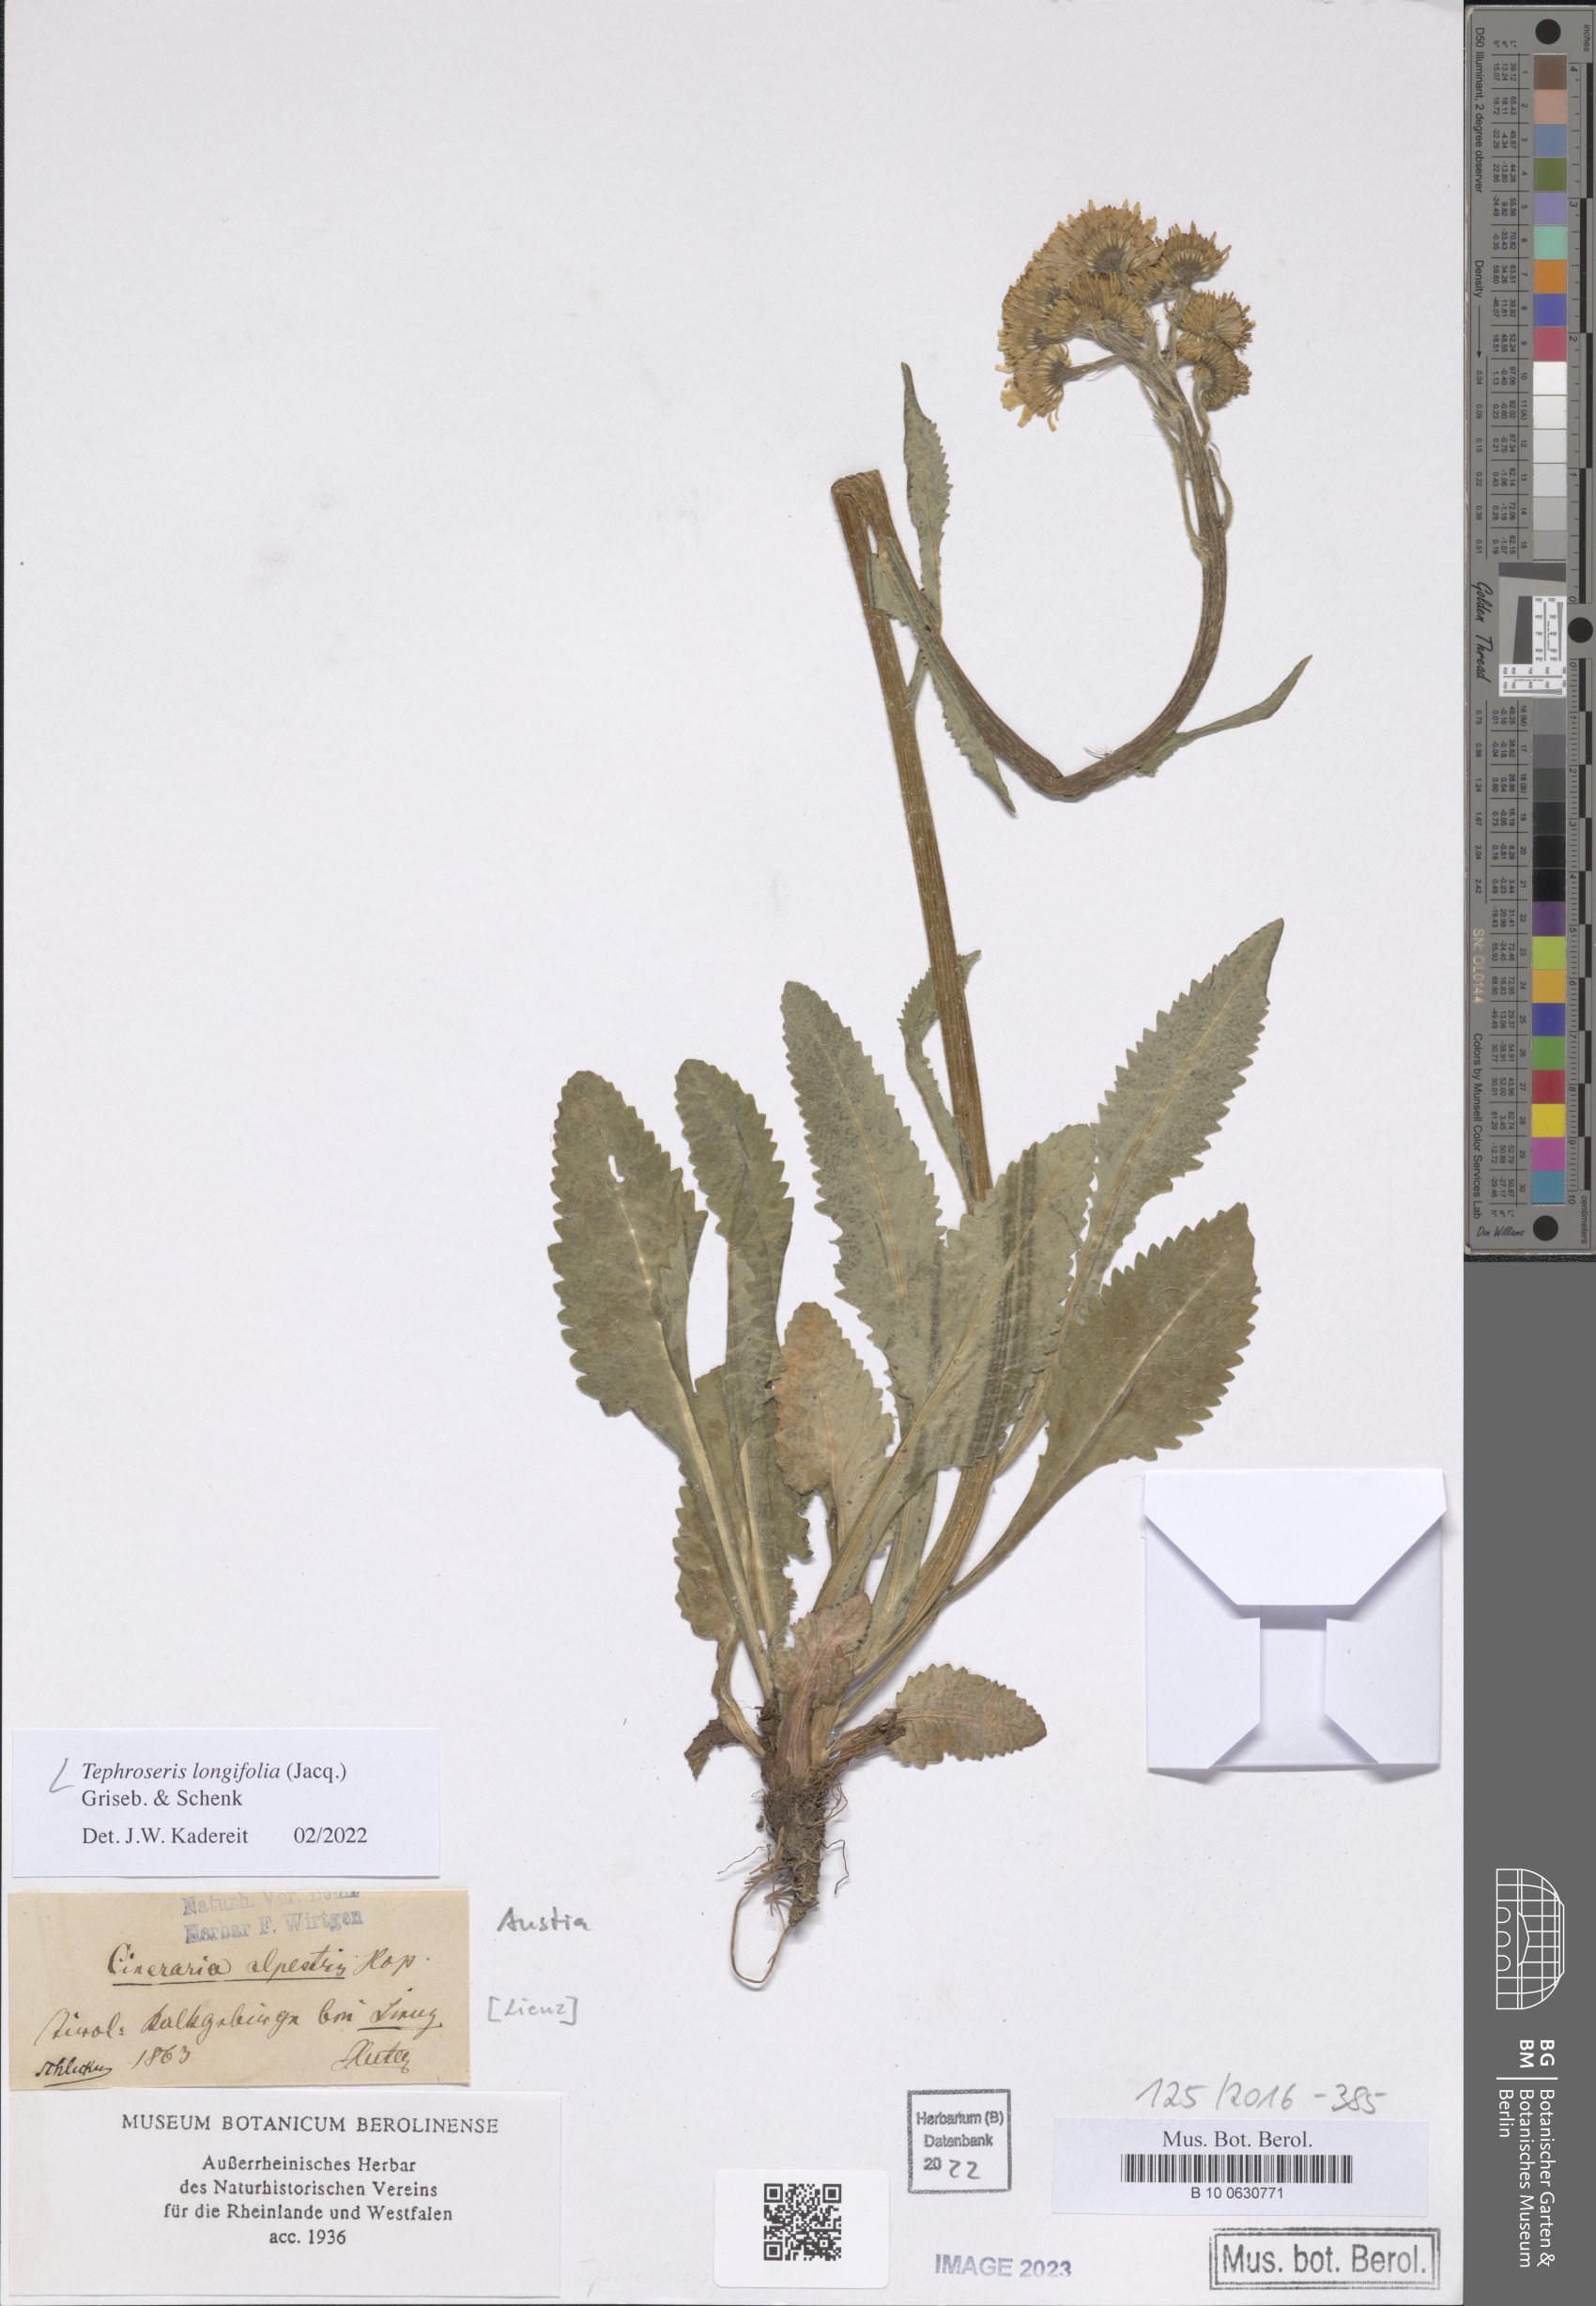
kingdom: Plantae
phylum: Tracheophyta
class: Magnoliopsida
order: Asterales
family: Asteraceae
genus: Tephroseris
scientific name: Tephroseris longifolia
